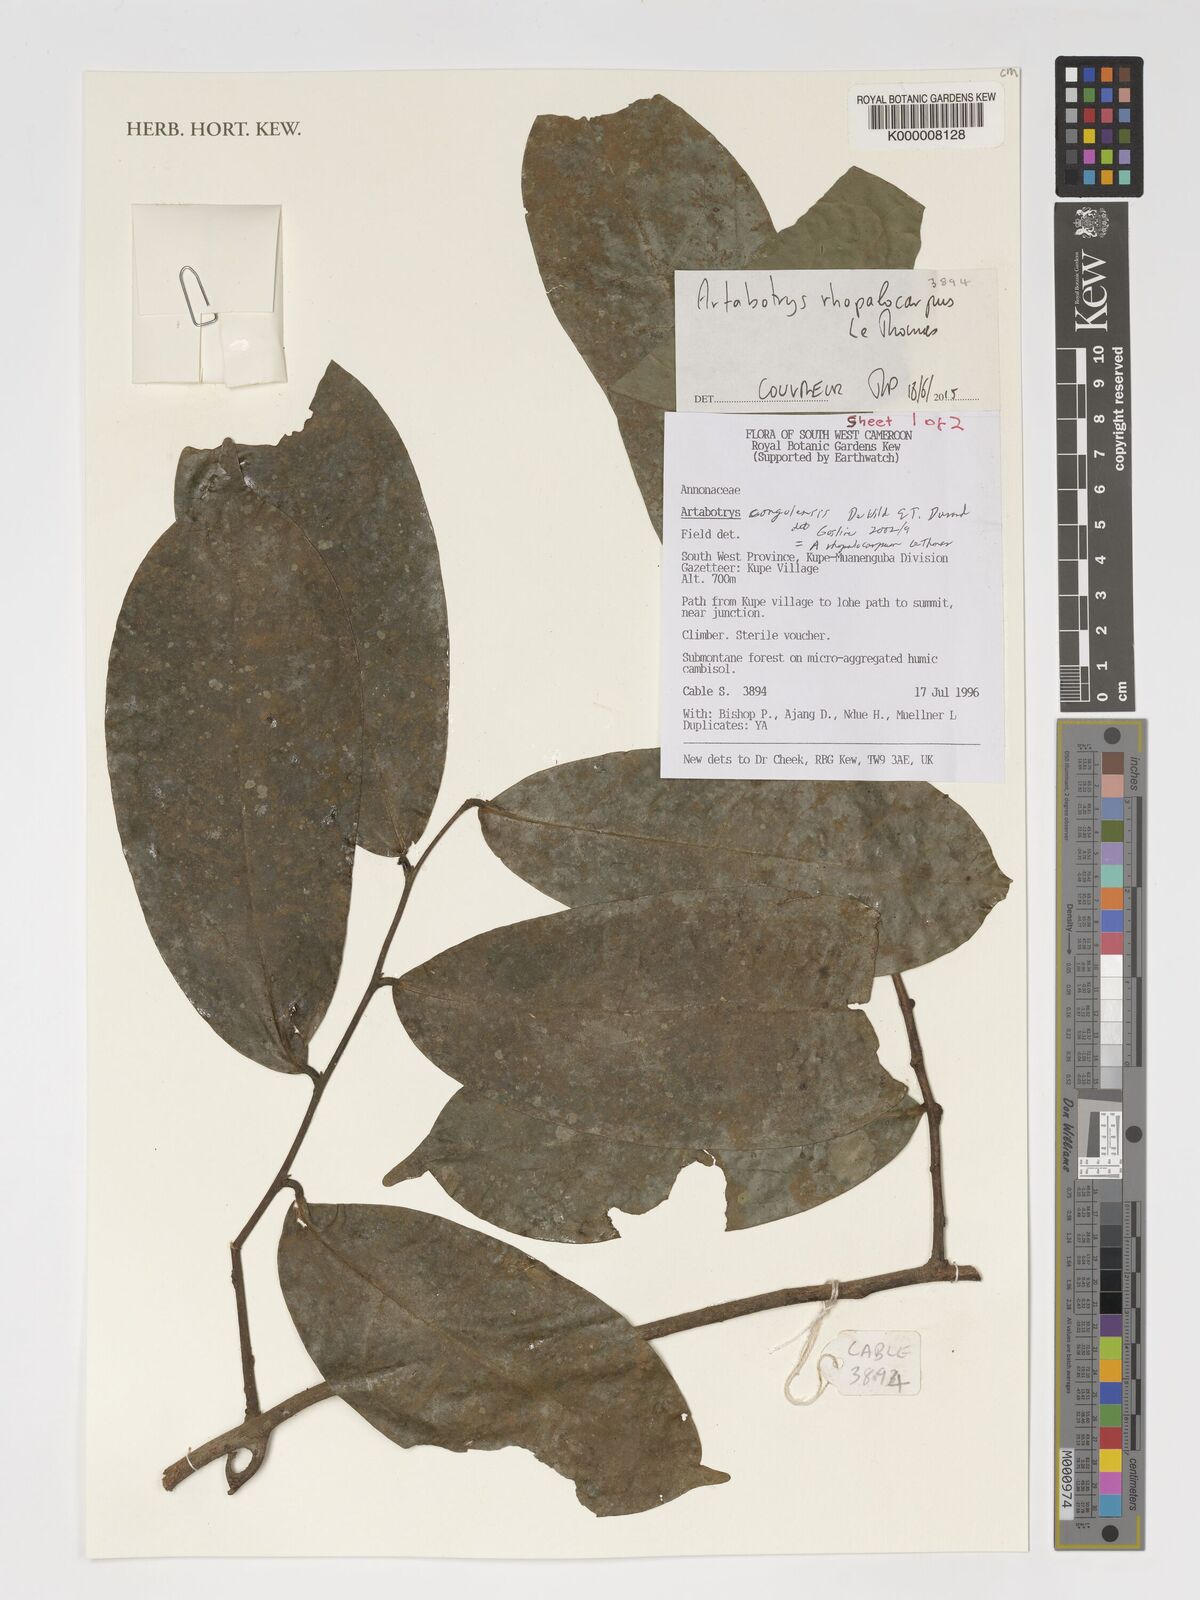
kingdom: Plantae
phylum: Tracheophyta
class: Magnoliopsida
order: Magnoliales
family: Annonaceae
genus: Artabotrys
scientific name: Artabotrys congolensis
